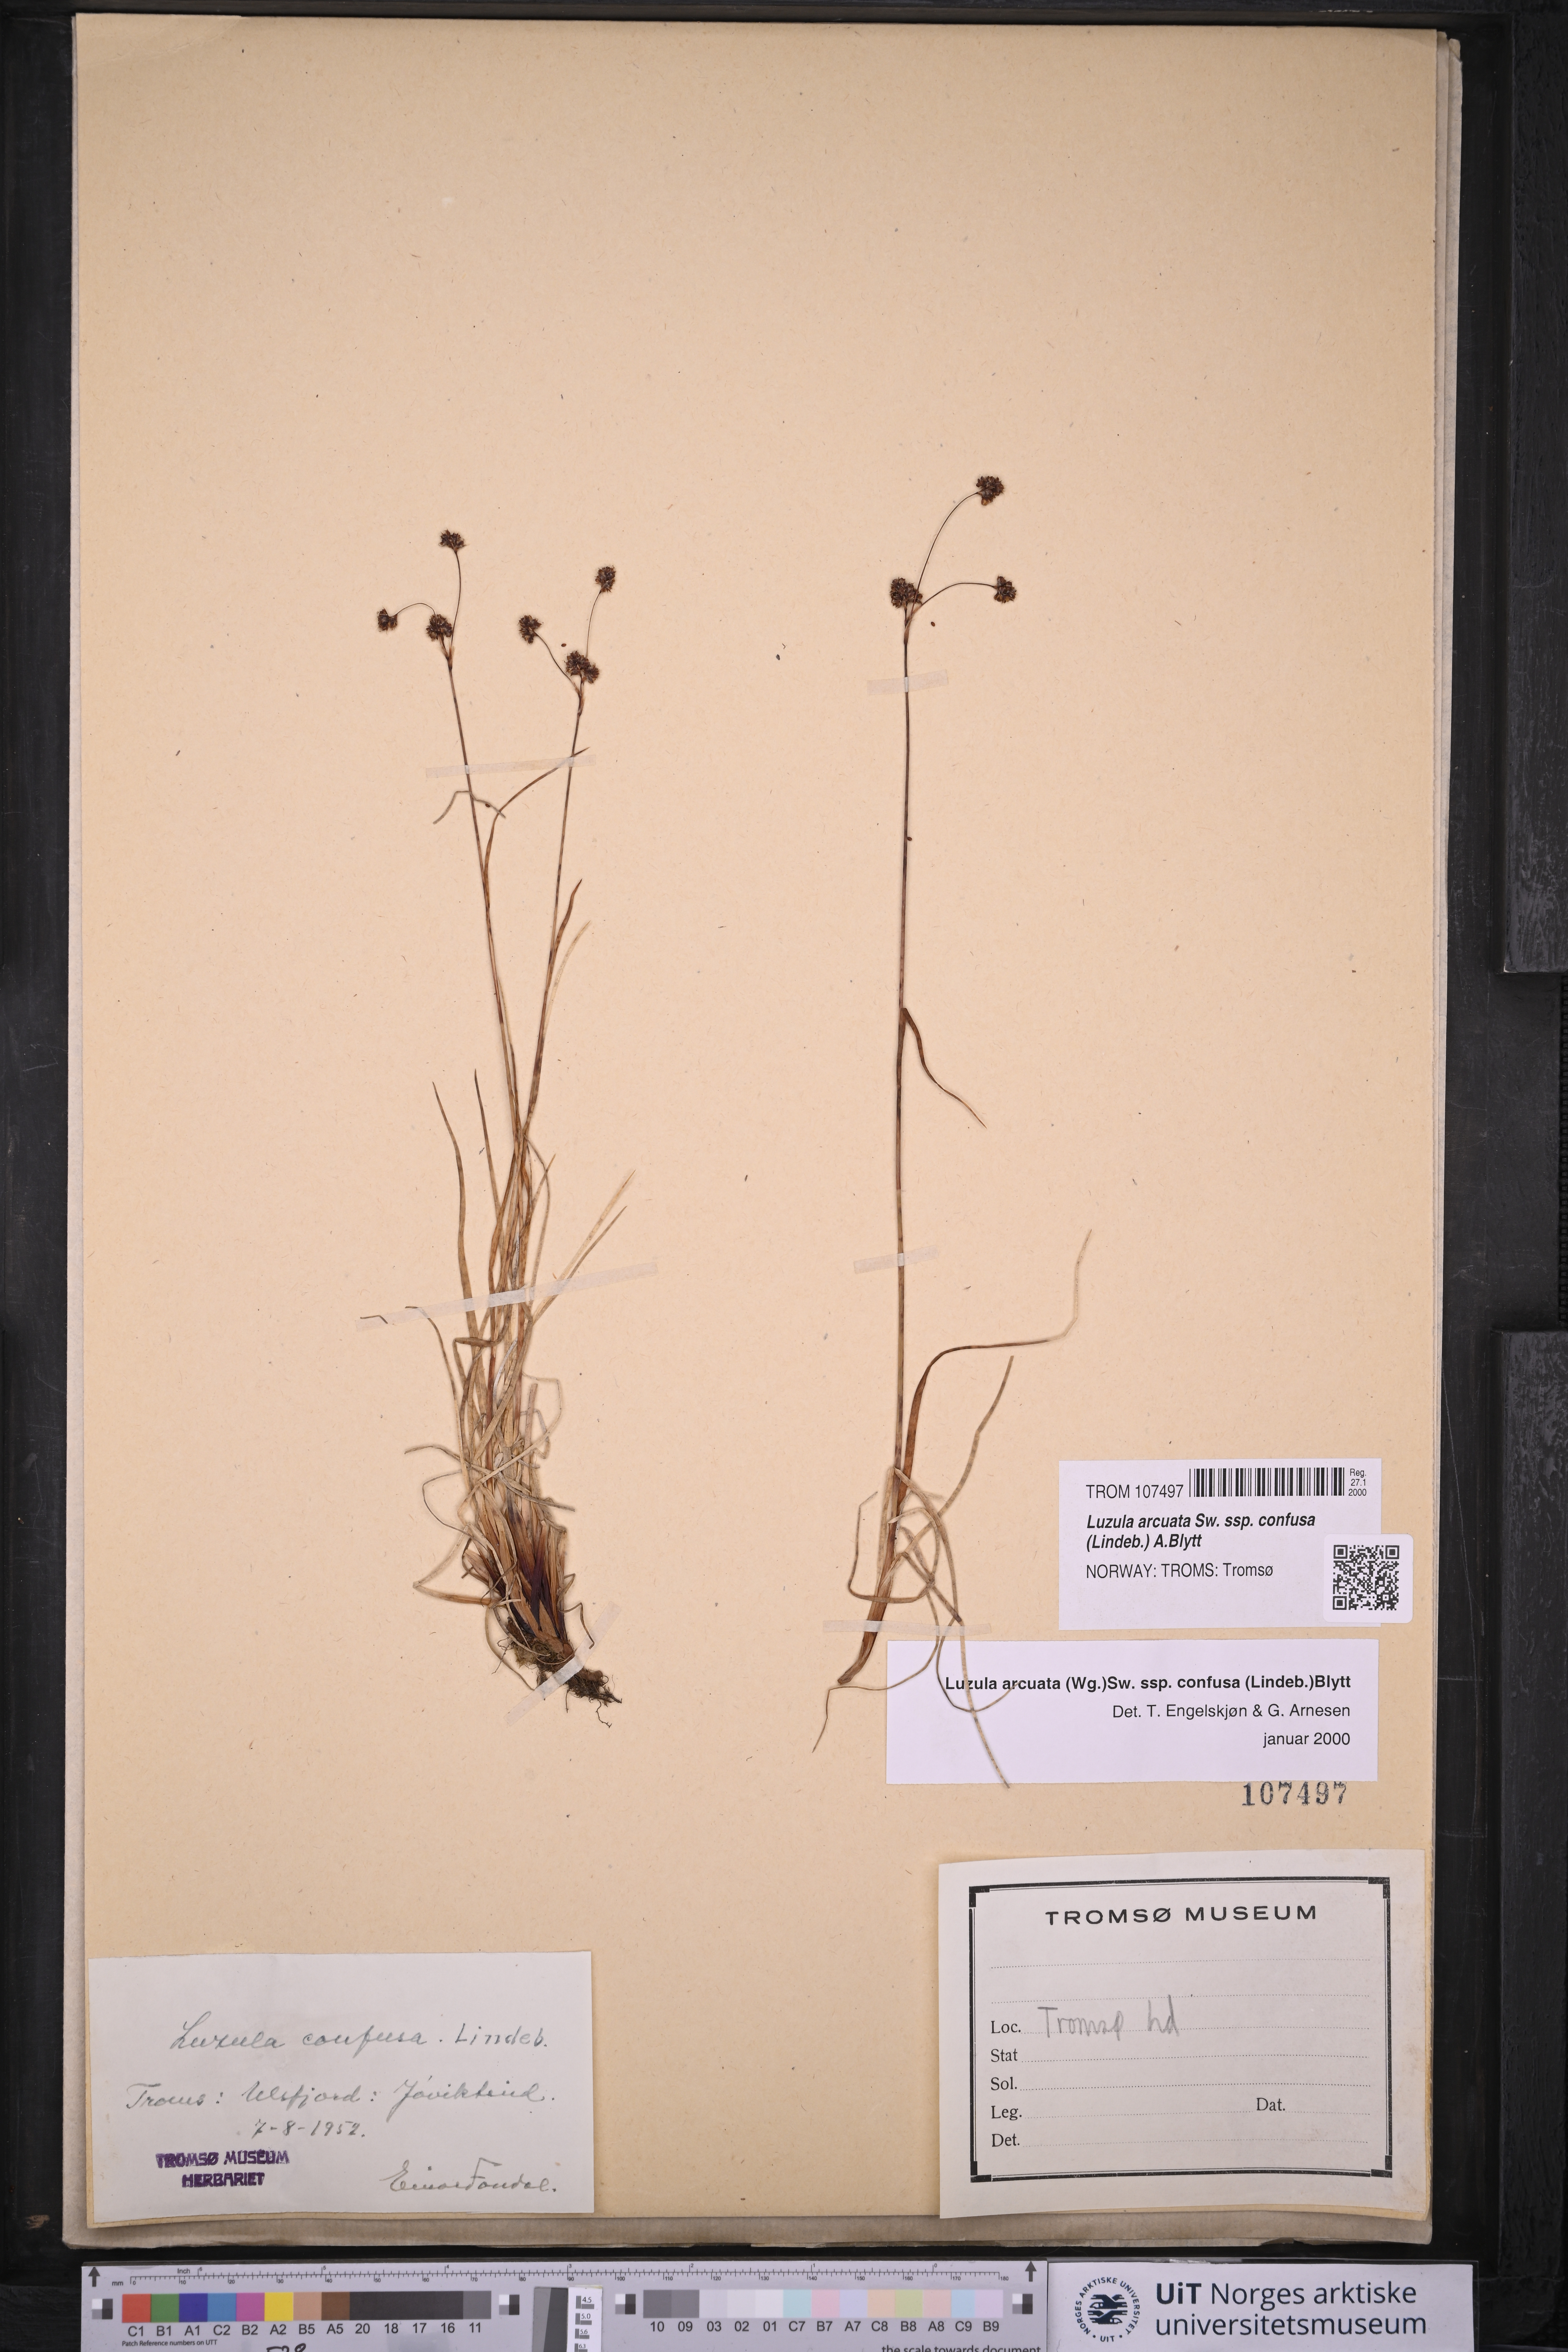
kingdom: Plantae
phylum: Tracheophyta
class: Liliopsida
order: Poales
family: Juncaceae
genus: Luzula
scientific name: Luzula confusa
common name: Northern wood rush
